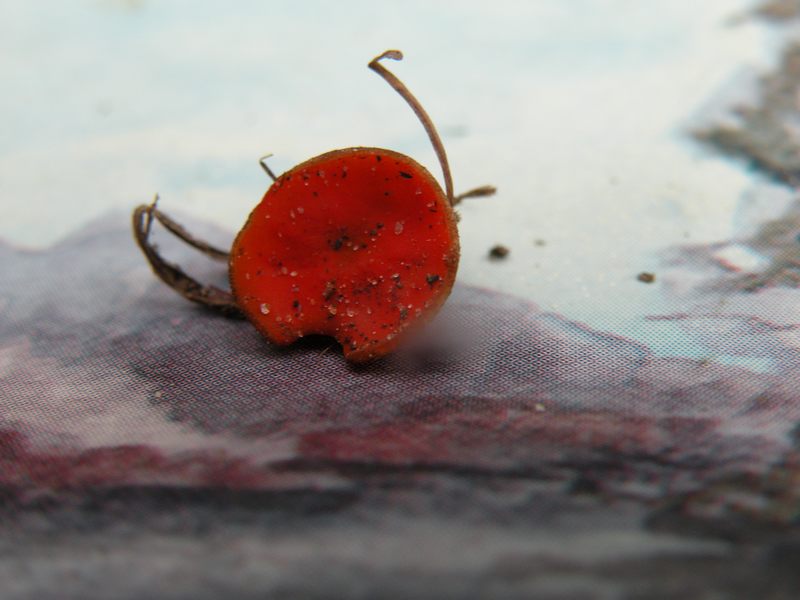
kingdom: Fungi
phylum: Ascomycota
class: Pezizomycetes
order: Pezizales
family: Pyronemataceae
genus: Melastiza
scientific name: Melastiza cornubiensis
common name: mørkrandet rødbæger
